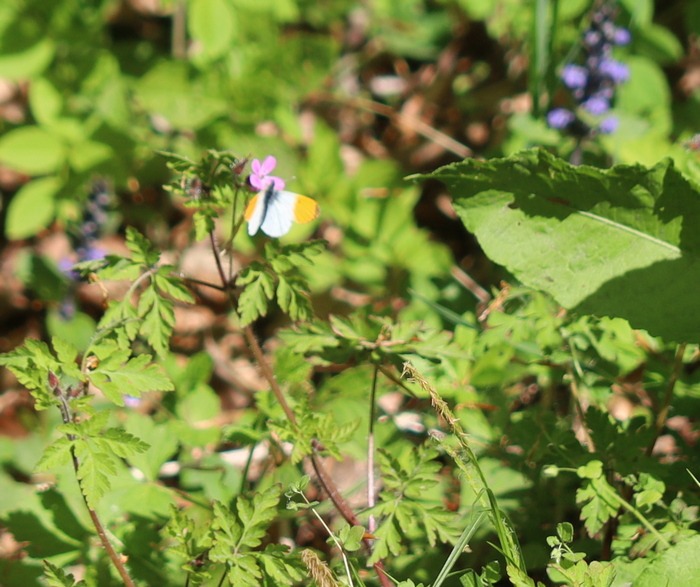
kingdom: Animalia
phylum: Arthropoda
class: Insecta
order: Lepidoptera
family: Pieridae
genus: Anthocharis
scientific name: Anthocharis cardamines
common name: Aurora
